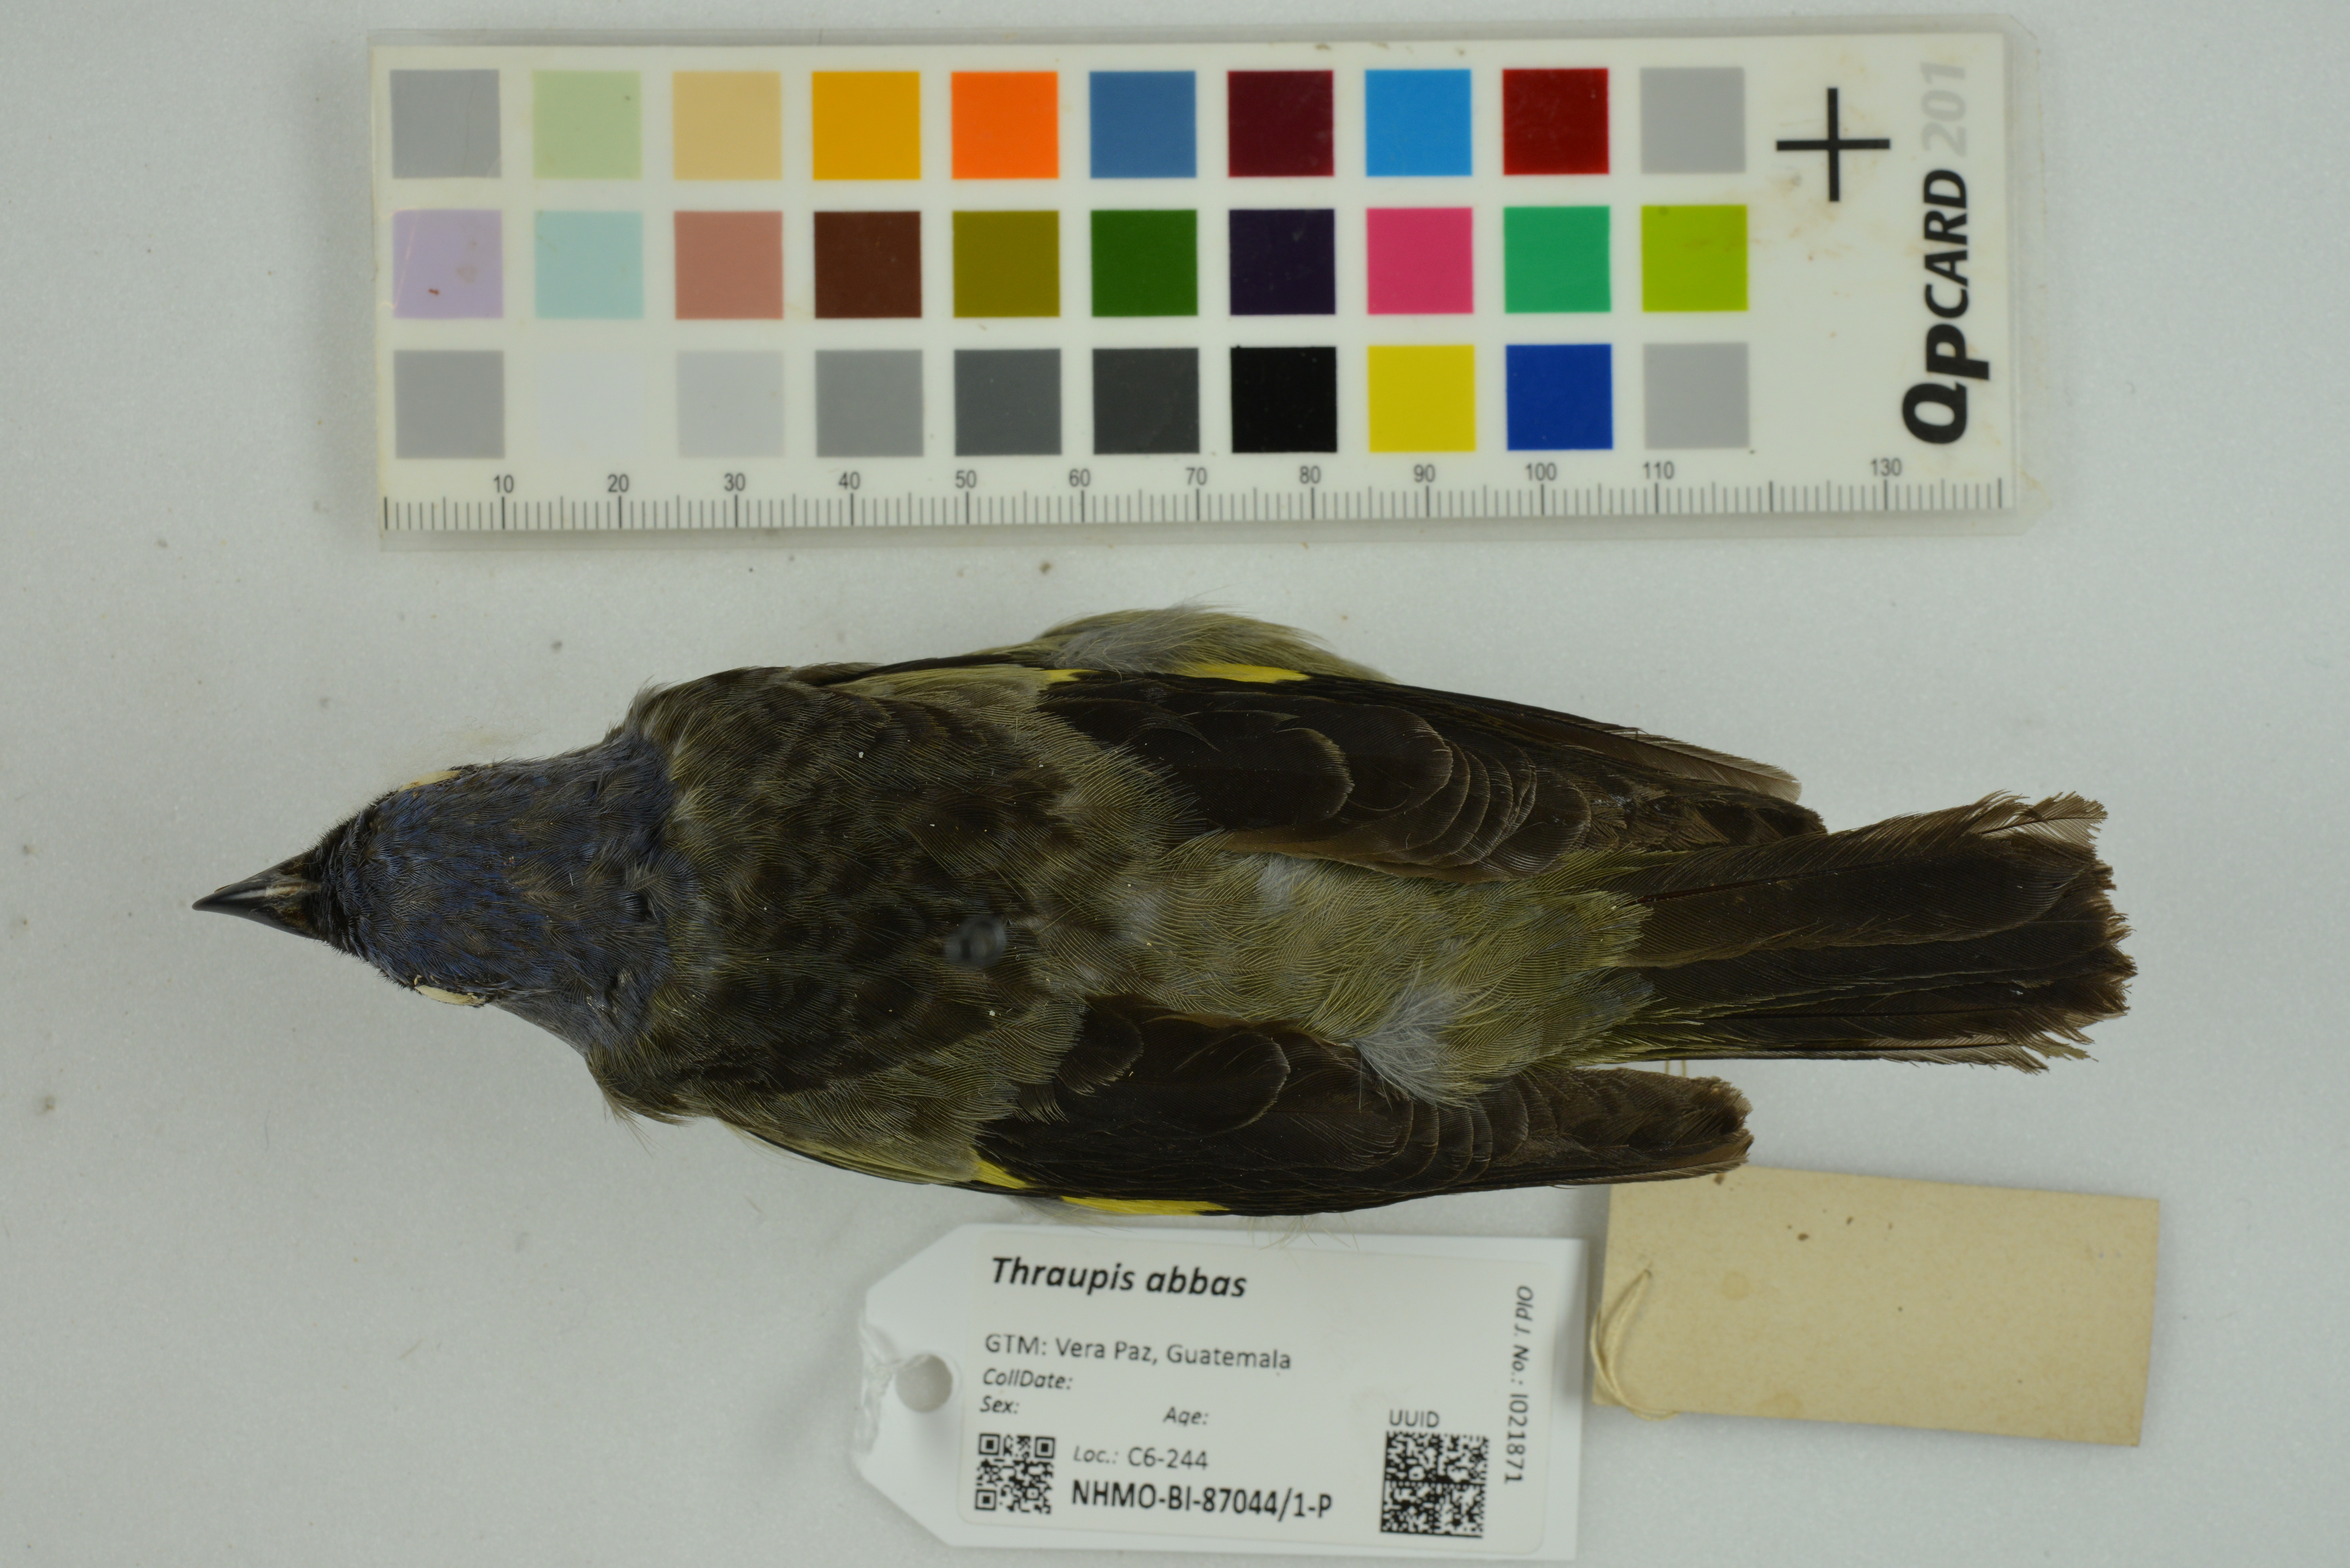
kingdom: Animalia
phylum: Chordata
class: Aves
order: Passeriformes
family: Thraupidae
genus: Thraupis
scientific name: Thraupis abbas
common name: Yellow-winged tanager
